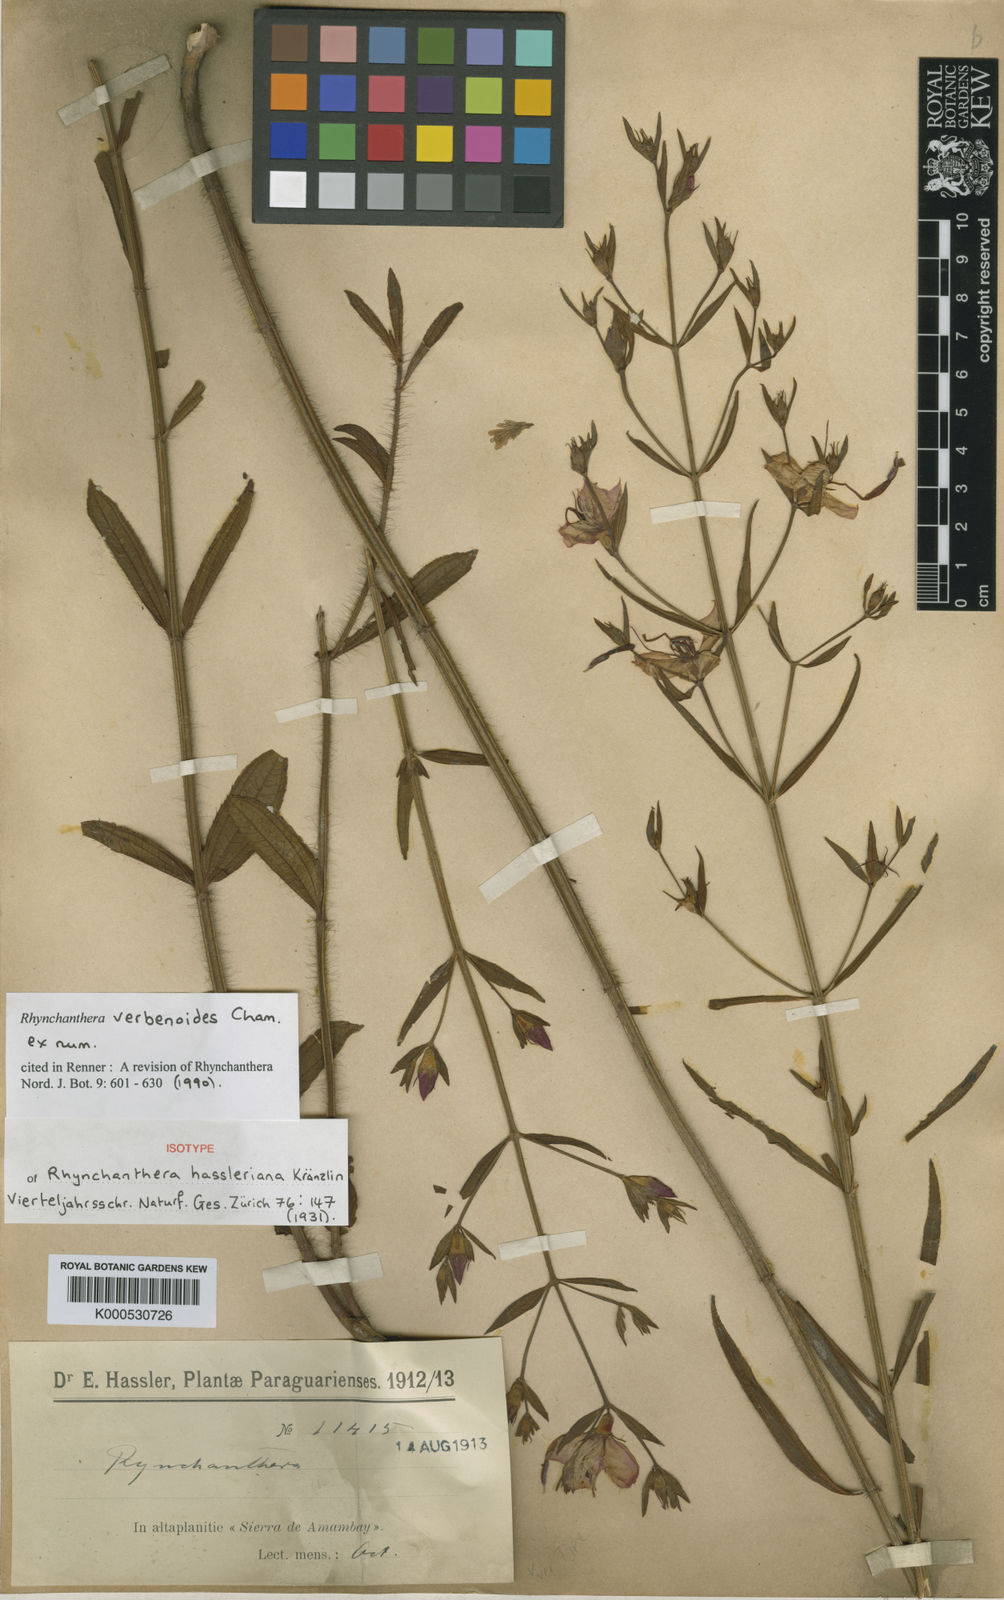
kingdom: Plantae
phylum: Tracheophyta
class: Magnoliopsida
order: Myrtales
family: Melastomataceae
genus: Rhynchanthera
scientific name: Rhynchanthera verbenoides
